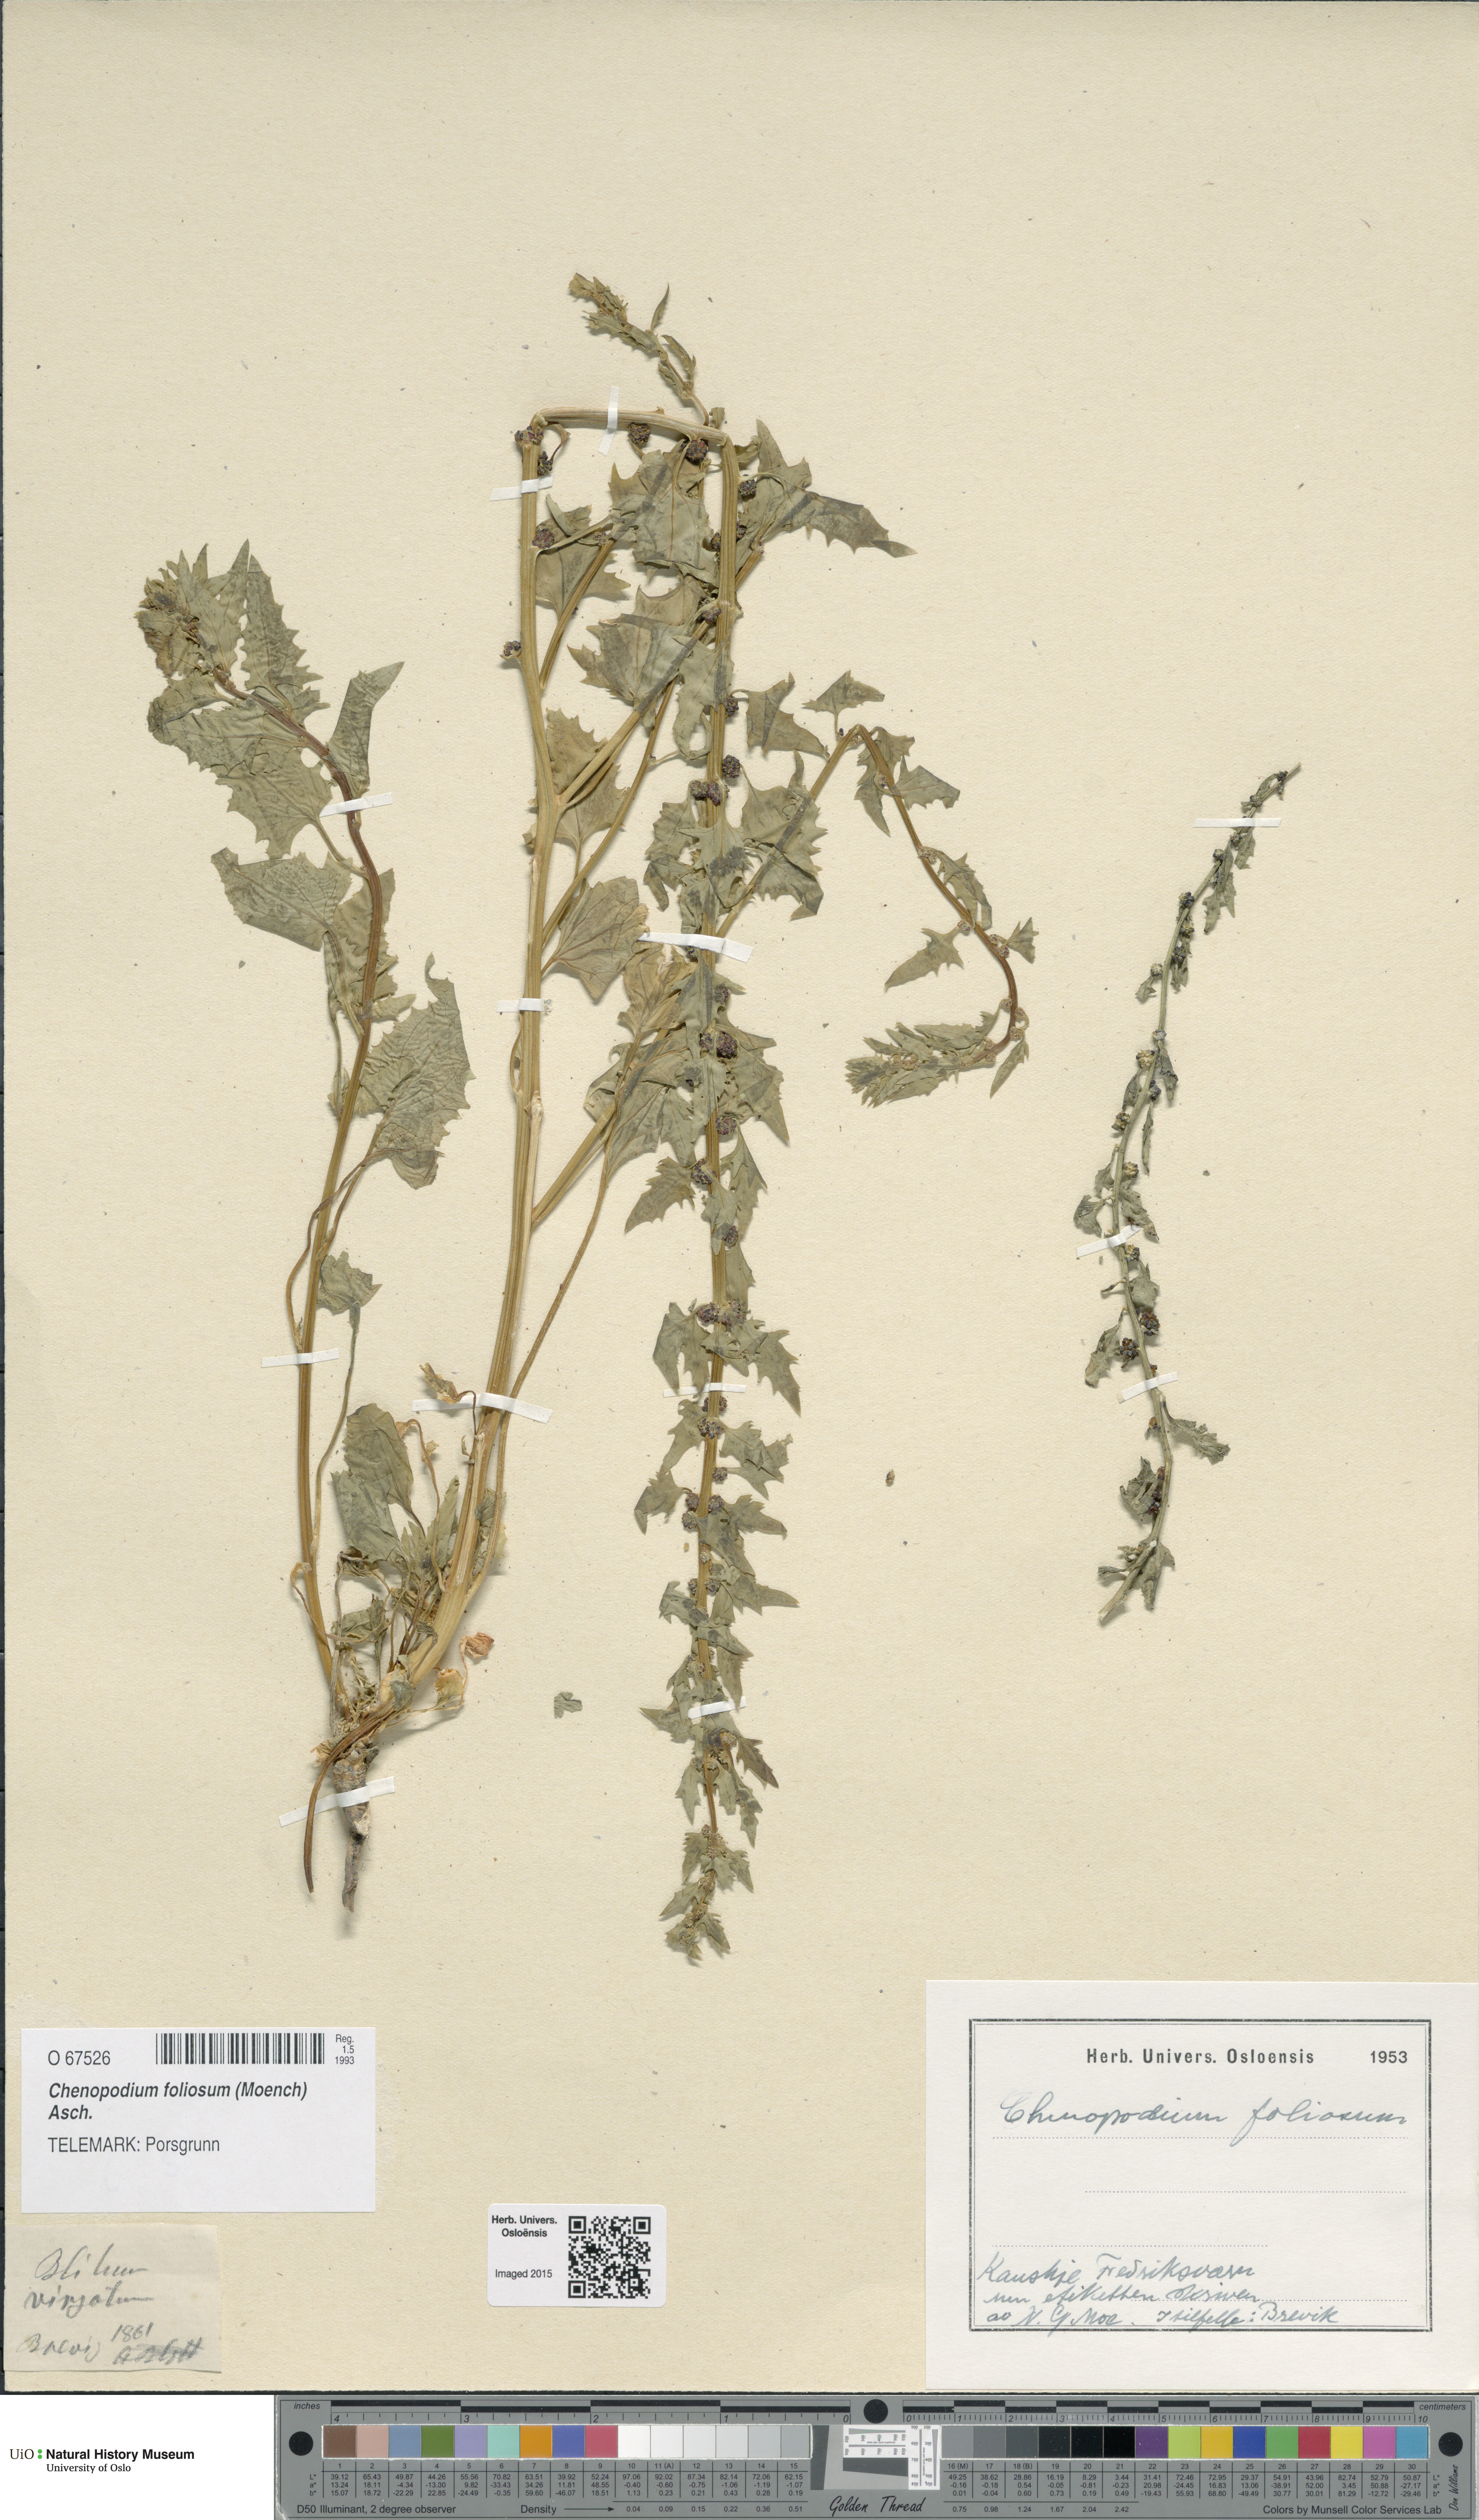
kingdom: Plantae
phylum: Tracheophyta
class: Magnoliopsida
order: Caryophyllales
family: Amaranthaceae
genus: Blitum
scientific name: Blitum virgatum
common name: Strawberry goosefoot
